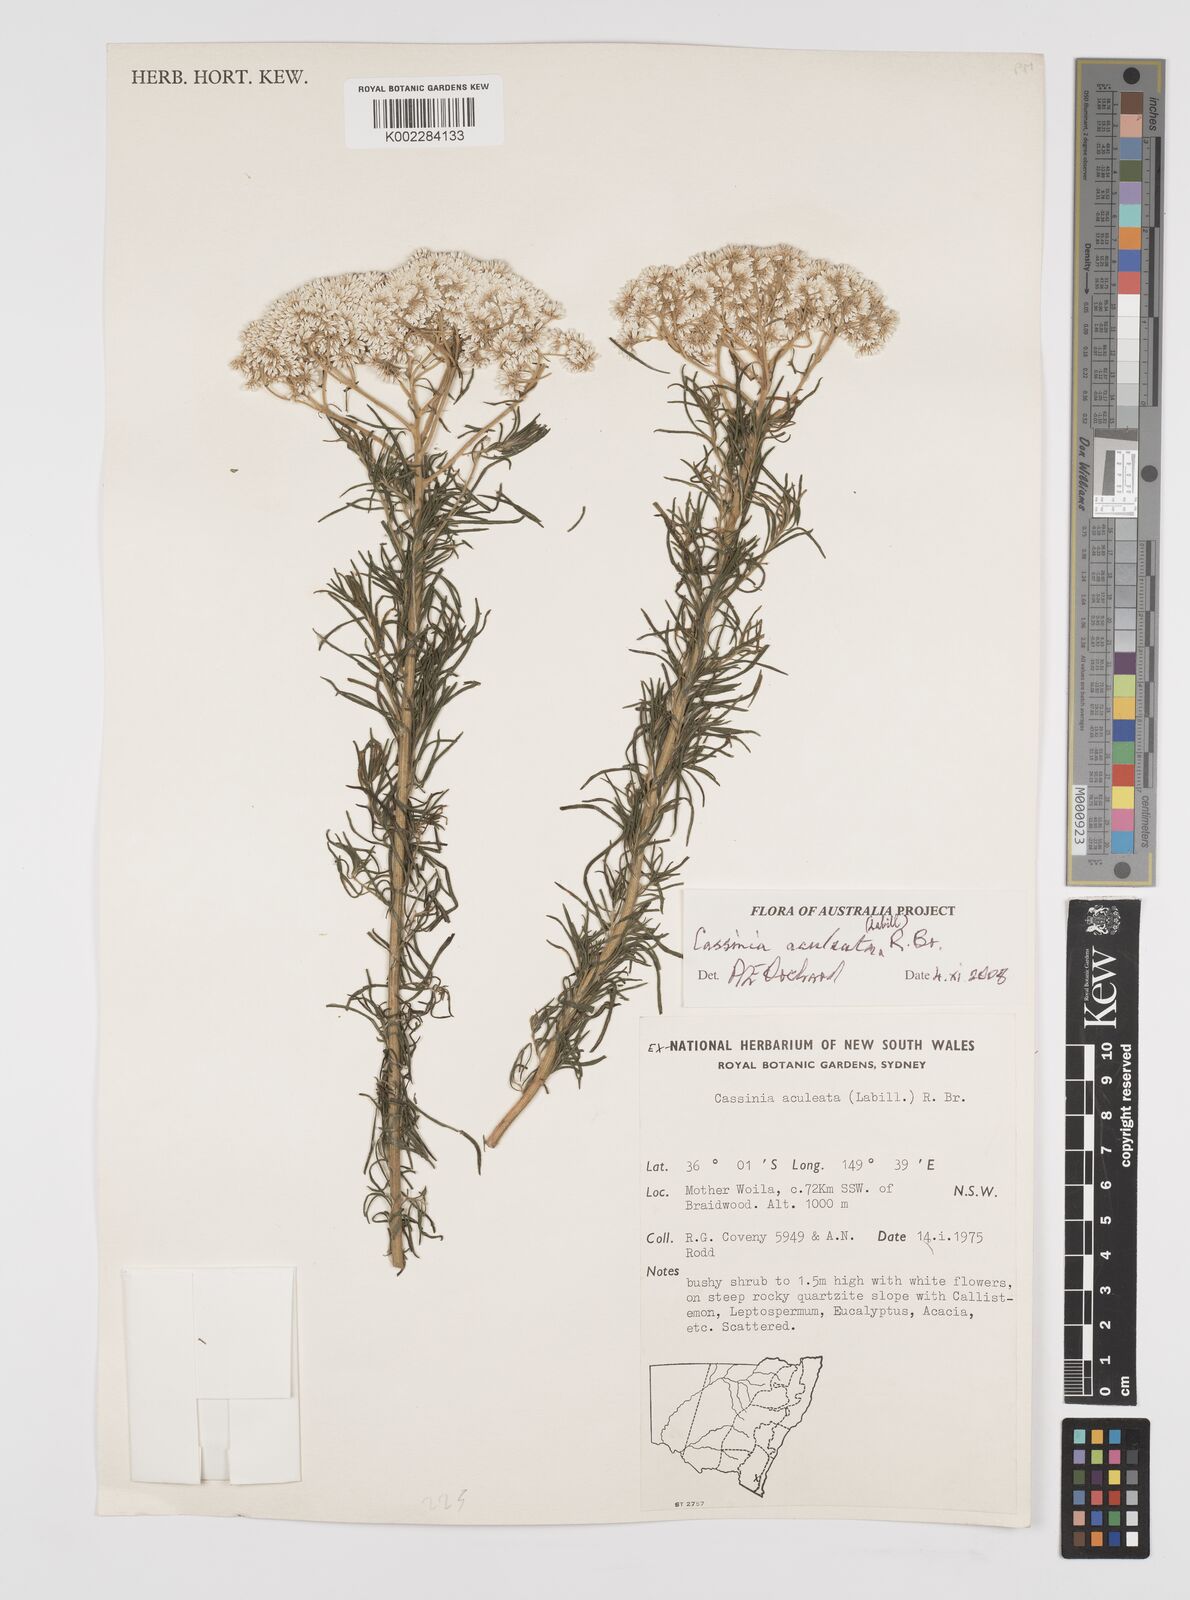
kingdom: Plantae
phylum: Tracheophyta
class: Magnoliopsida
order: Asterales
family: Asteraceae
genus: Cassinia
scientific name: Cassinia aculeata
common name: Australian tauhinu
